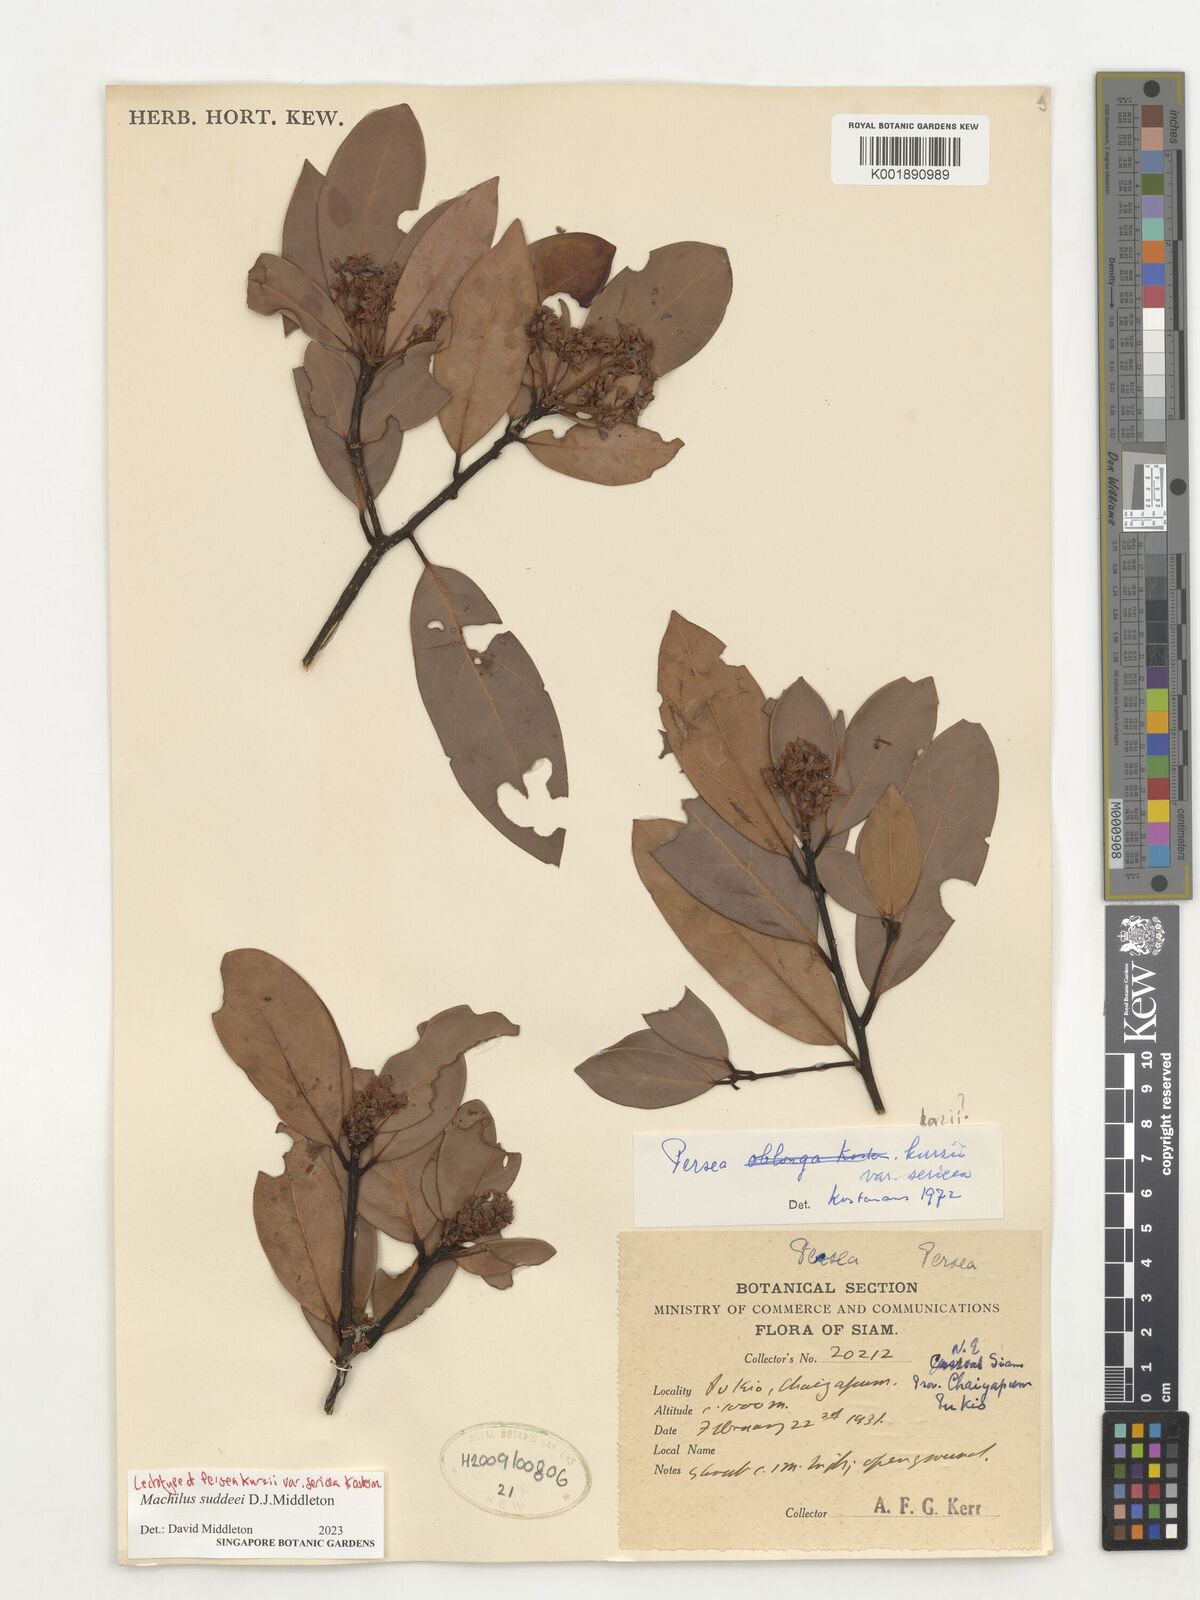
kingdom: Plantae
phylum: Tracheophyta
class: Magnoliopsida
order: Laurales
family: Lauraceae
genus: Machilus
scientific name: Machilus
